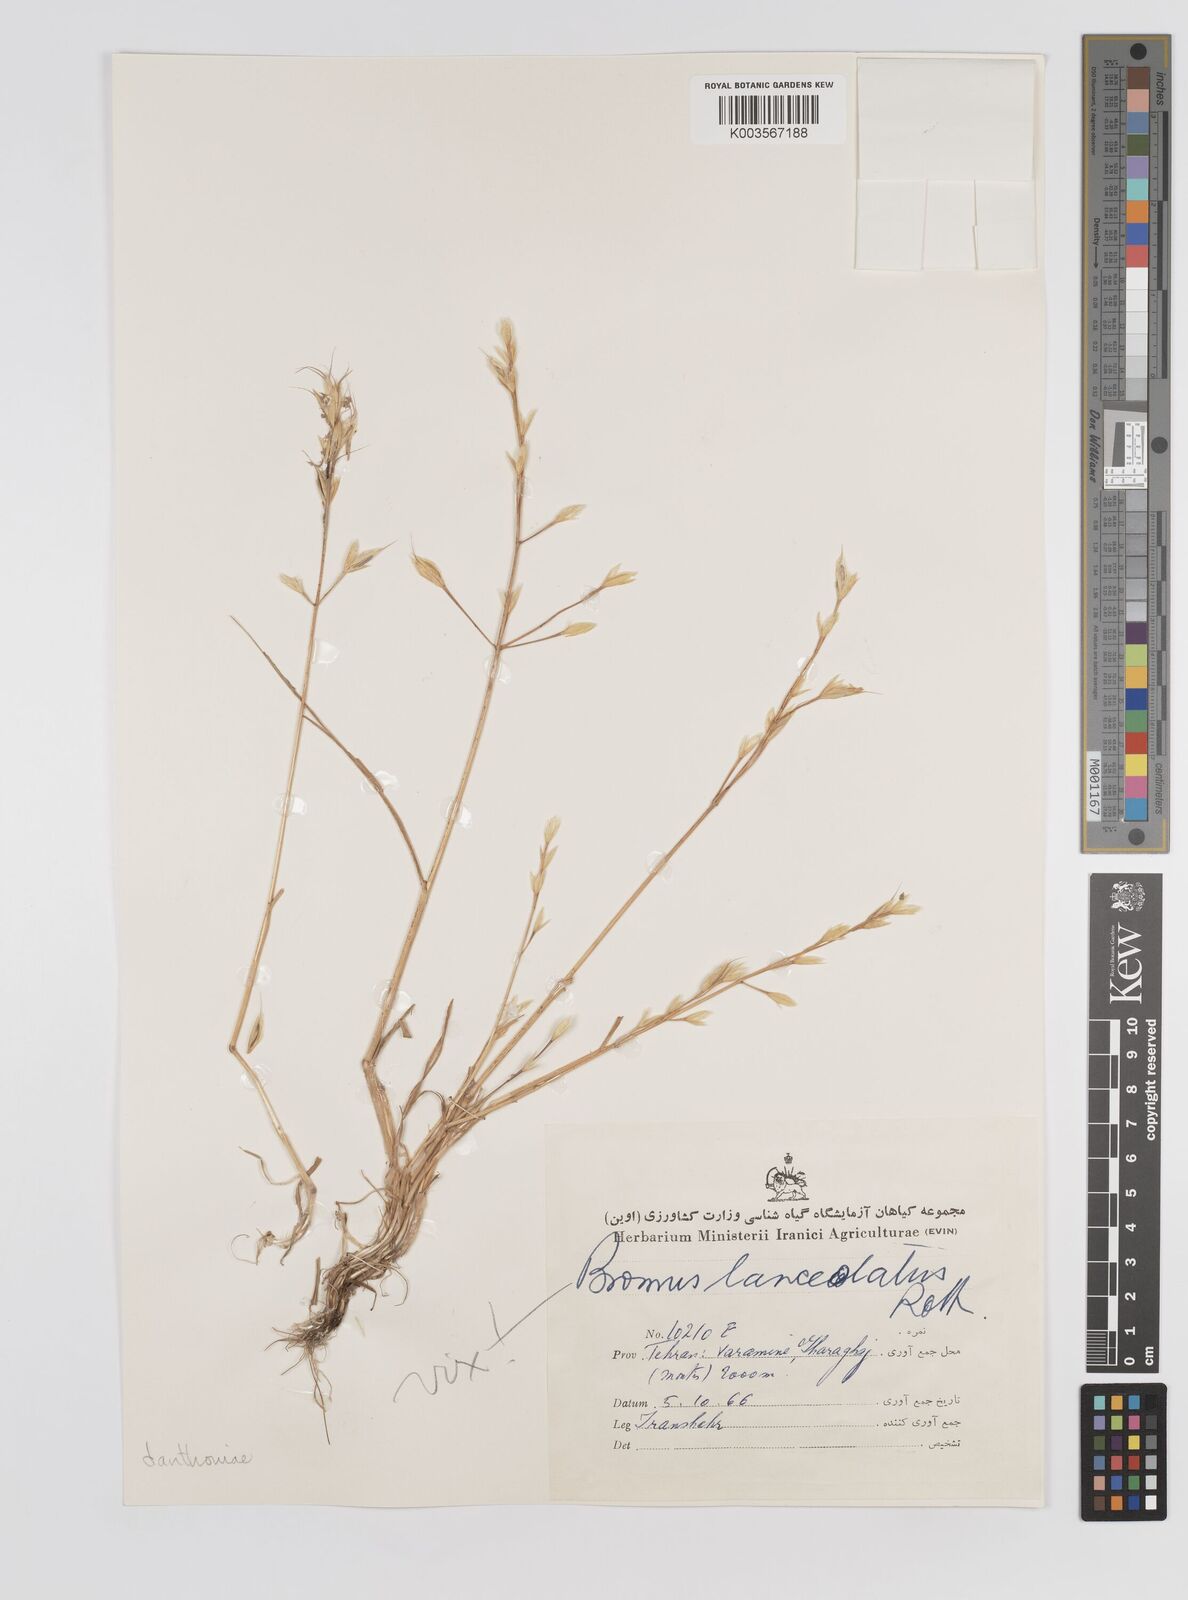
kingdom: Plantae
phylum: Tracheophyta
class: Liliopsida
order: Poales
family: Poaceae
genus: Bromus
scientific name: Bromus danthoniae
